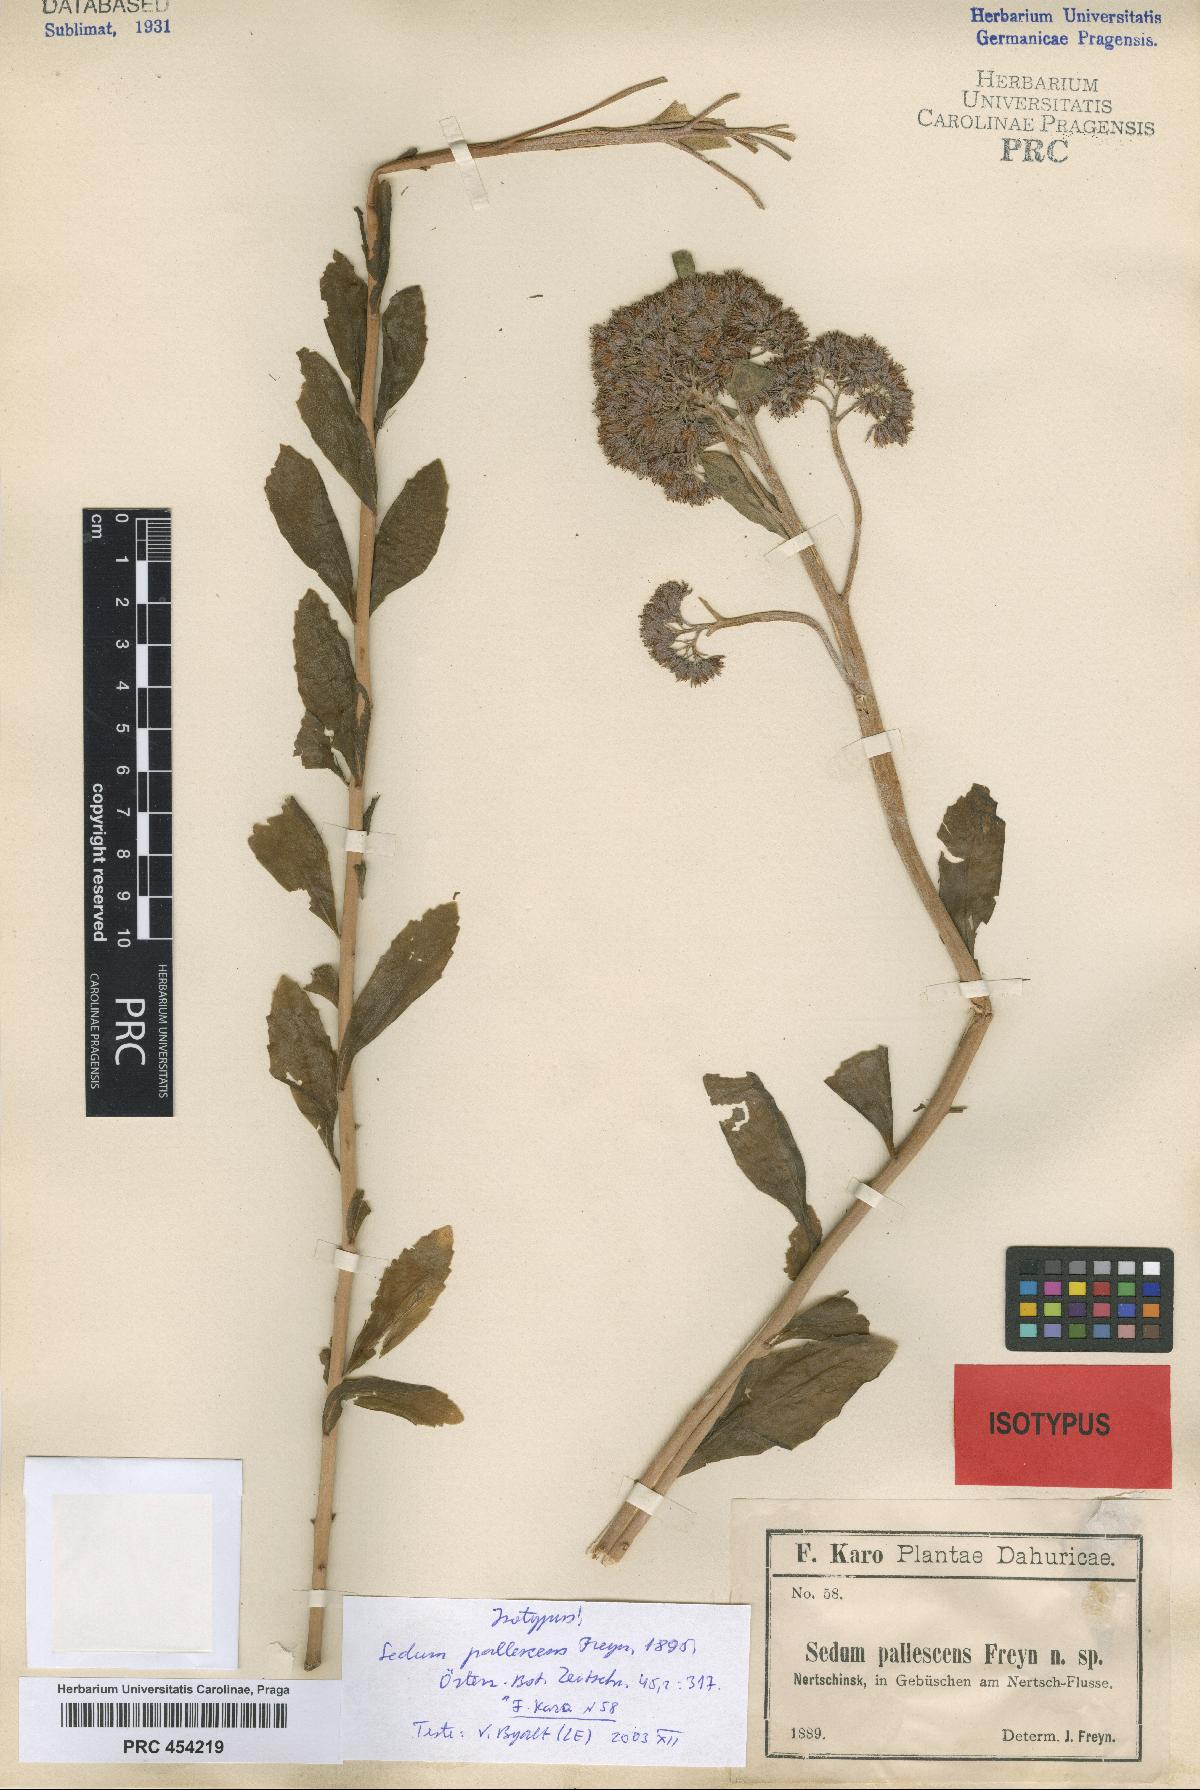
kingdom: Plantae
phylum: Tracheophyta
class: Magnoliopsida
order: Saxifragales
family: Crassulaceae
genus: Hylotelephium
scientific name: Hylotelephium pallescens
